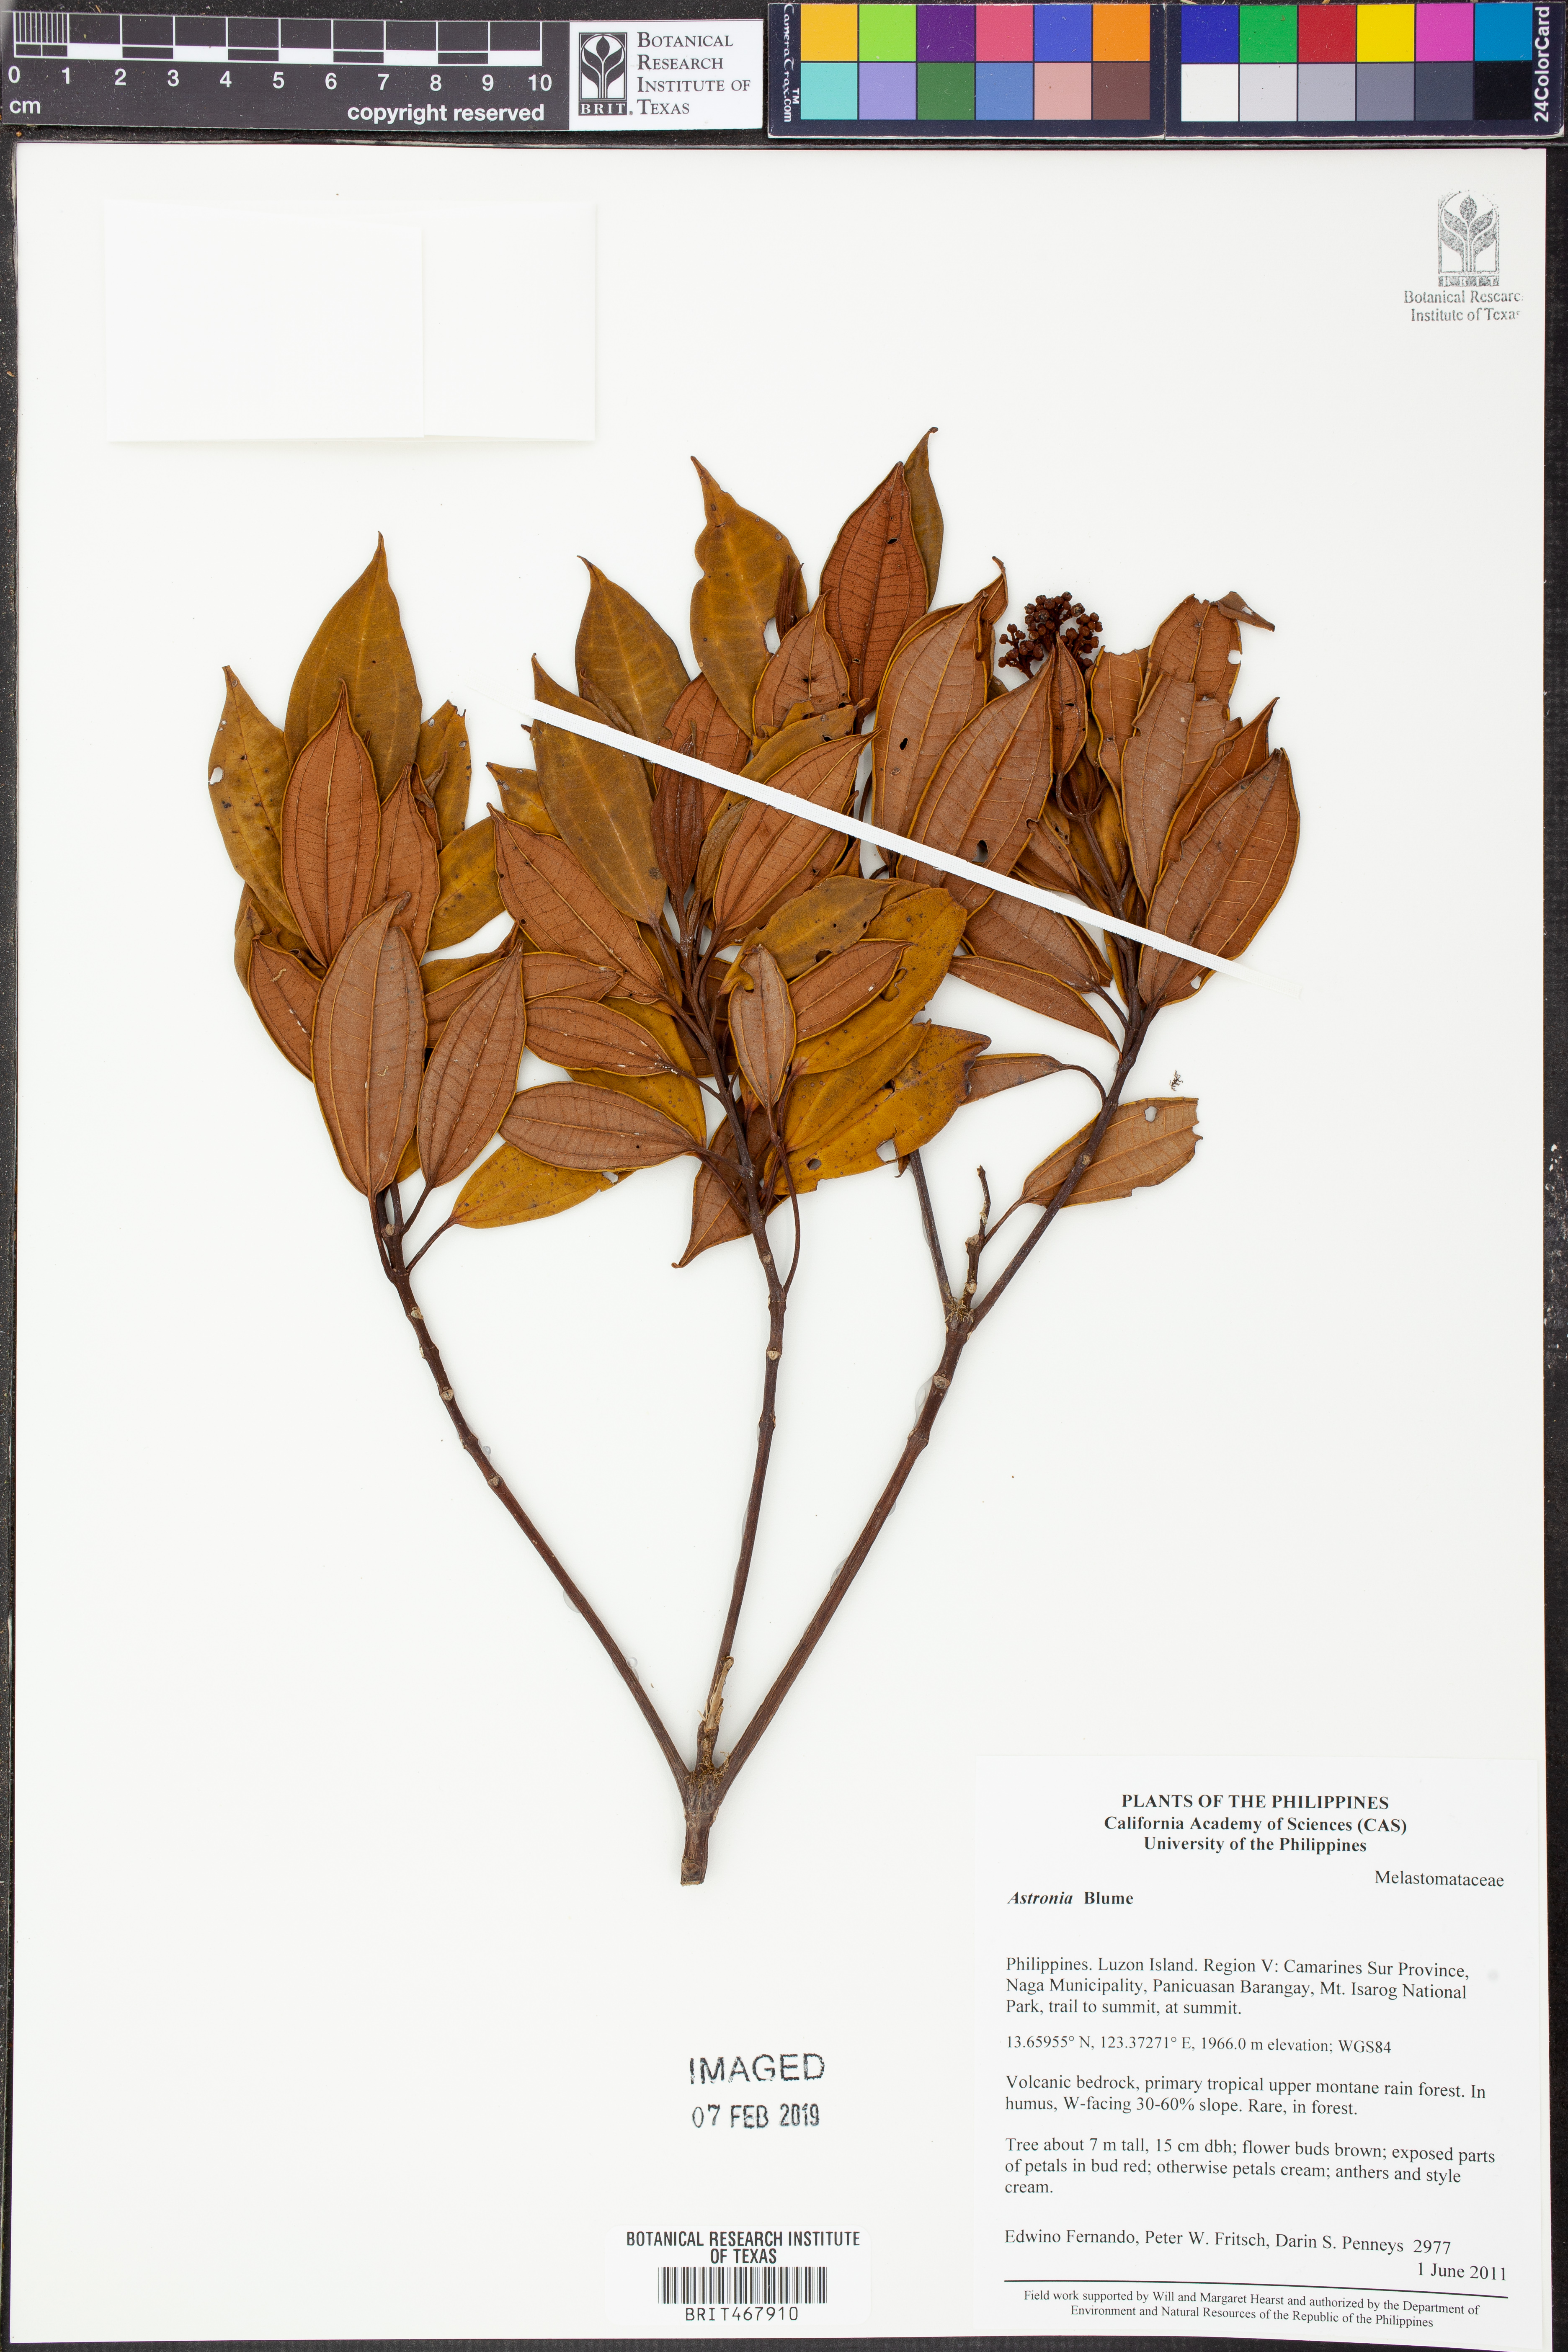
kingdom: Plantae
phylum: Tracheophyta
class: Magnoliopsida
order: Myrtales
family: Melastomataceae
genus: Astronia
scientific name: Astronia
